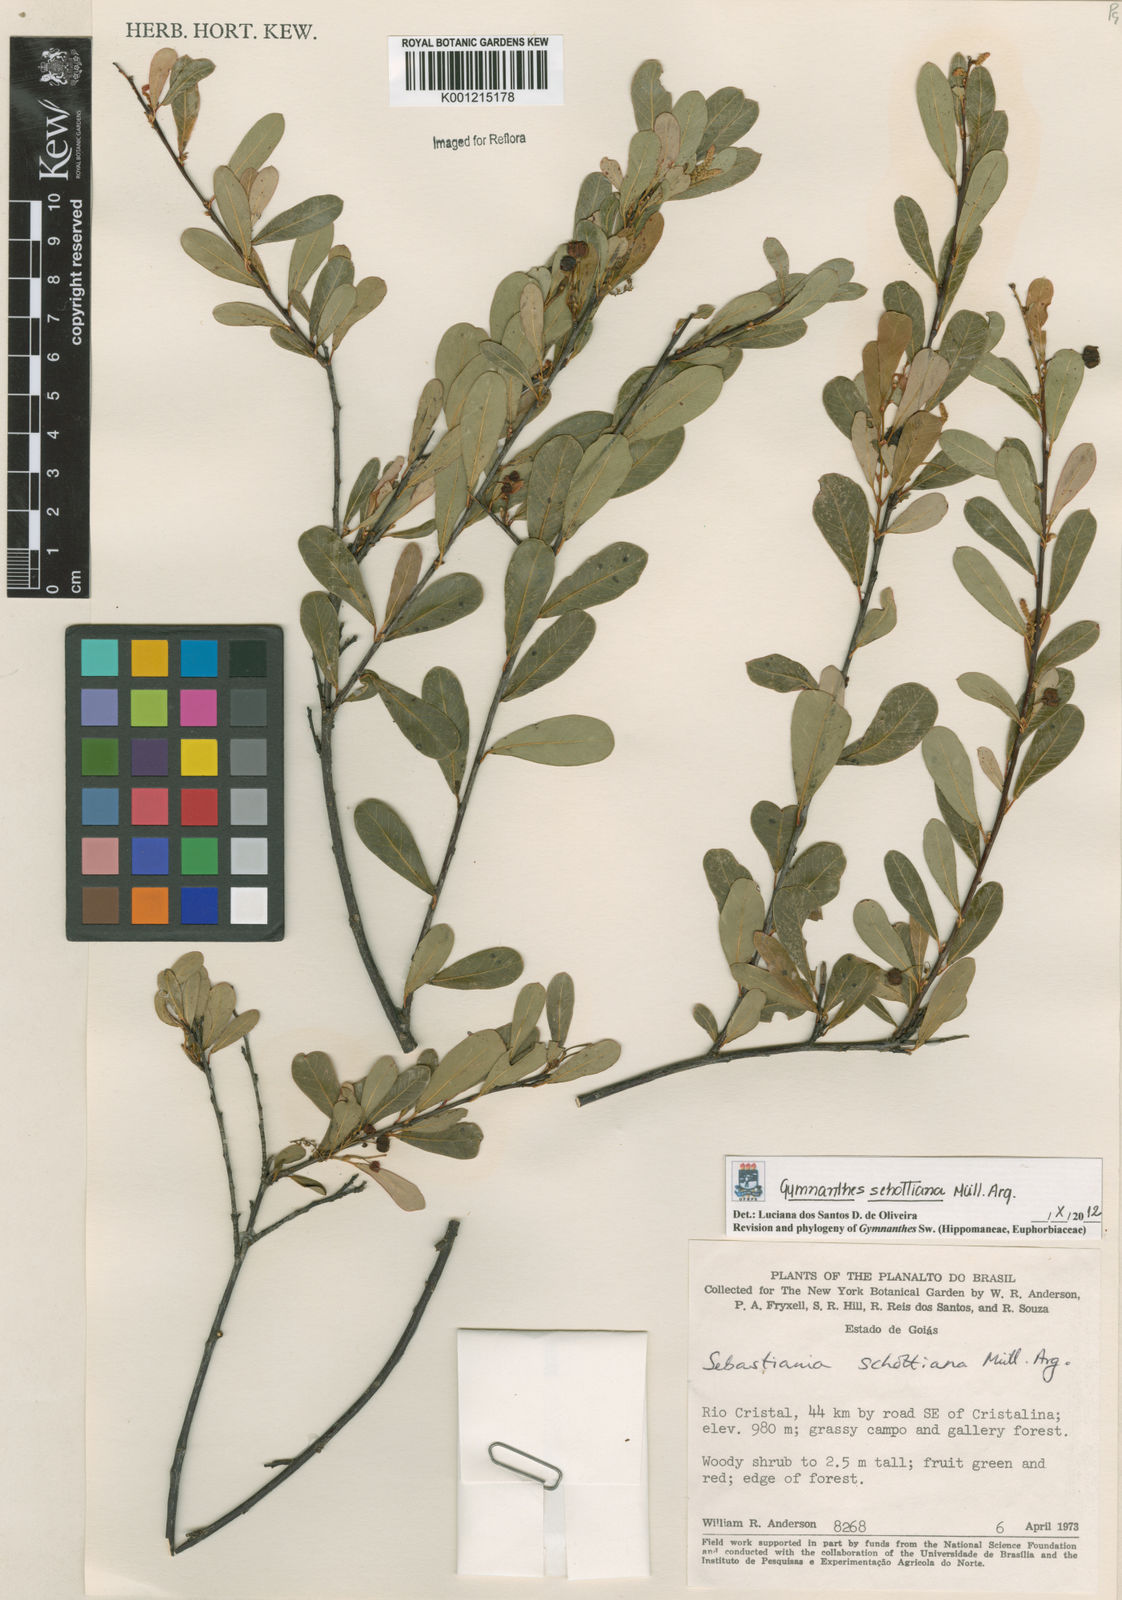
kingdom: Plantae
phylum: Tracheophyta
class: Magnoliopsida
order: Malpighiales
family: Euphorbiaceae
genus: Gymnanthes
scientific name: Gymnanthes
